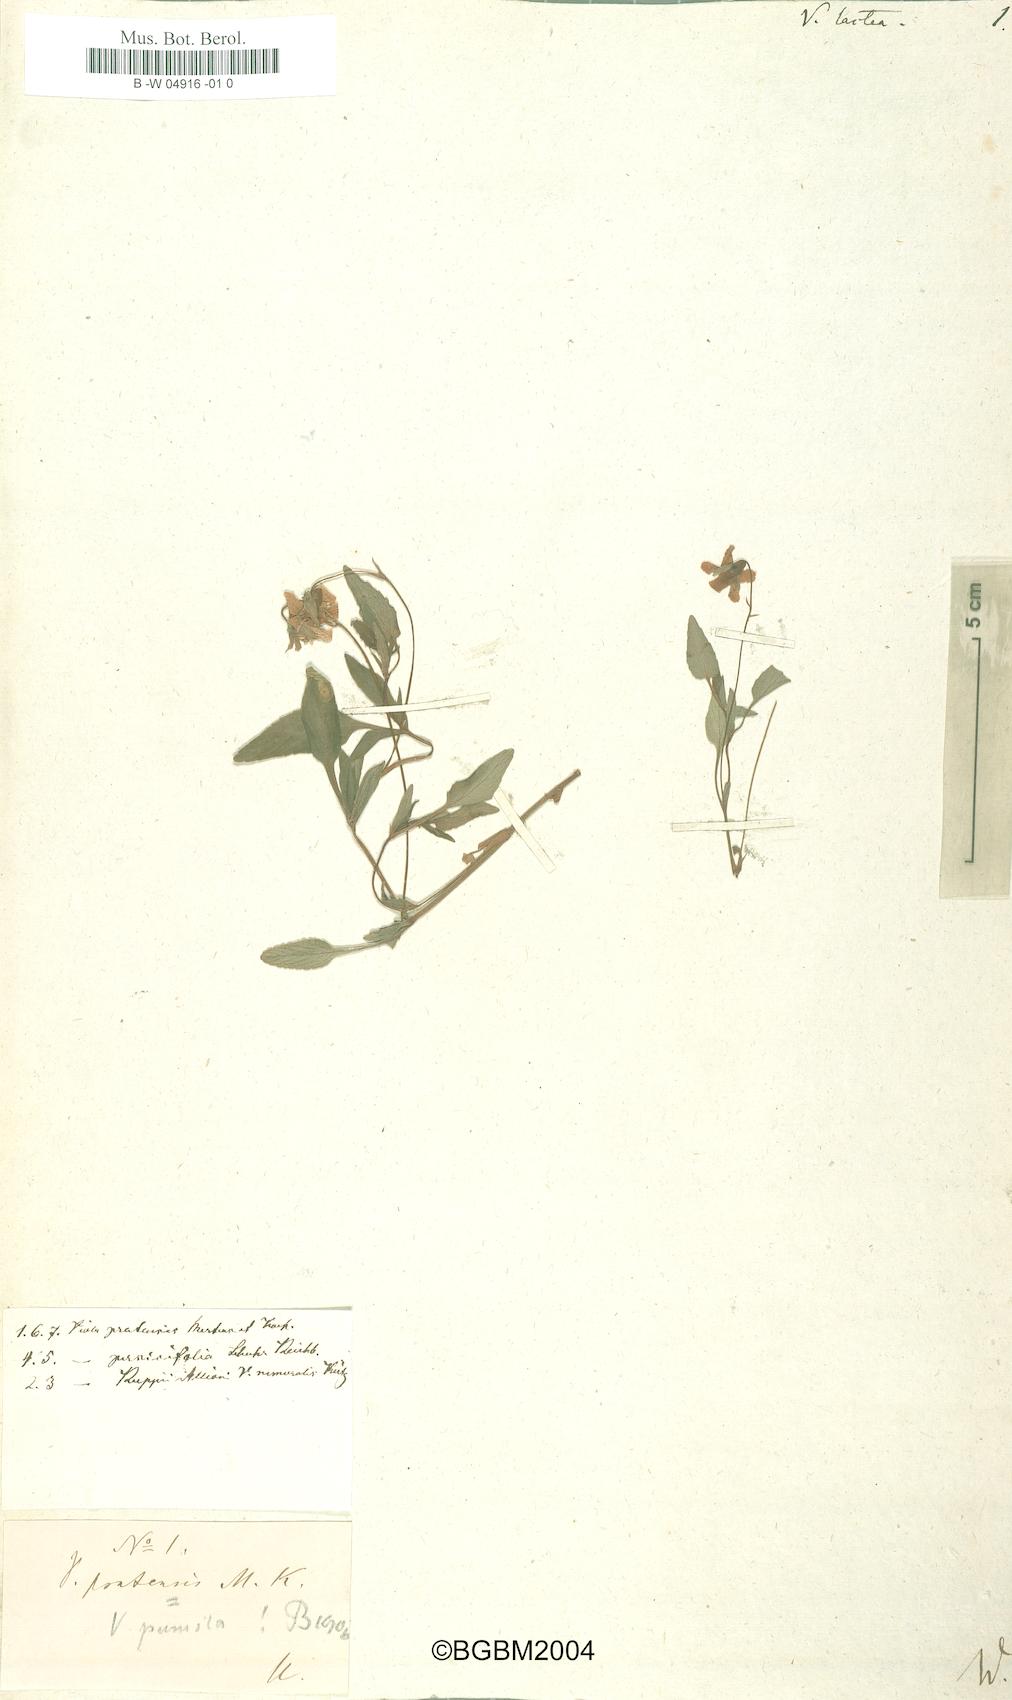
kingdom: Plantae
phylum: Tracheophyta
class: Magnoliopsida
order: Malpighiales
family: Violaceae
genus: Viola
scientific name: Viola lactea
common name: Pale dog-violet
